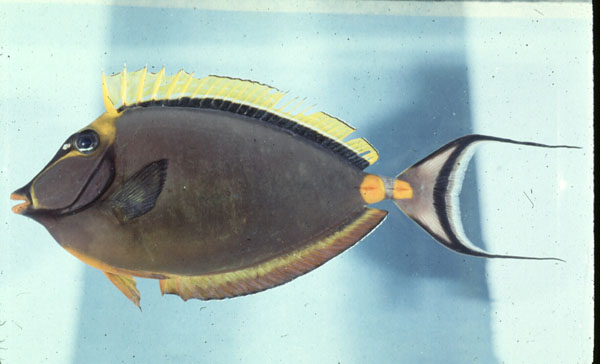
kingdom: Animalia
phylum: Chordata
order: Perciformes
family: Acanthuridae
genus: Naso
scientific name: Naso lituratus
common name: Orangespine unicornfish
